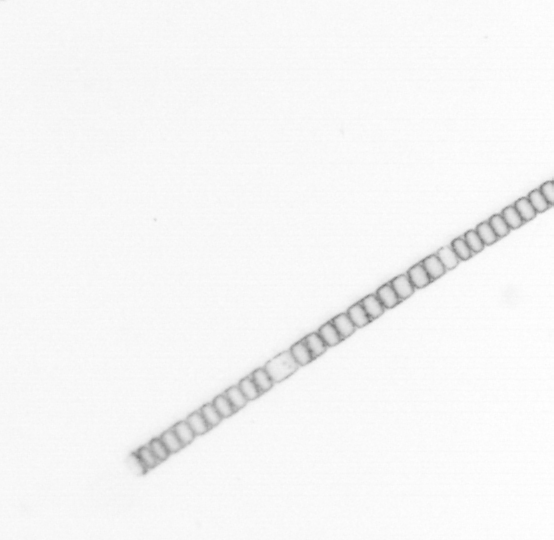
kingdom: Chromista
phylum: Ochrophyta
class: Bacillariophyceae
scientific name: Bacillariophyceae
